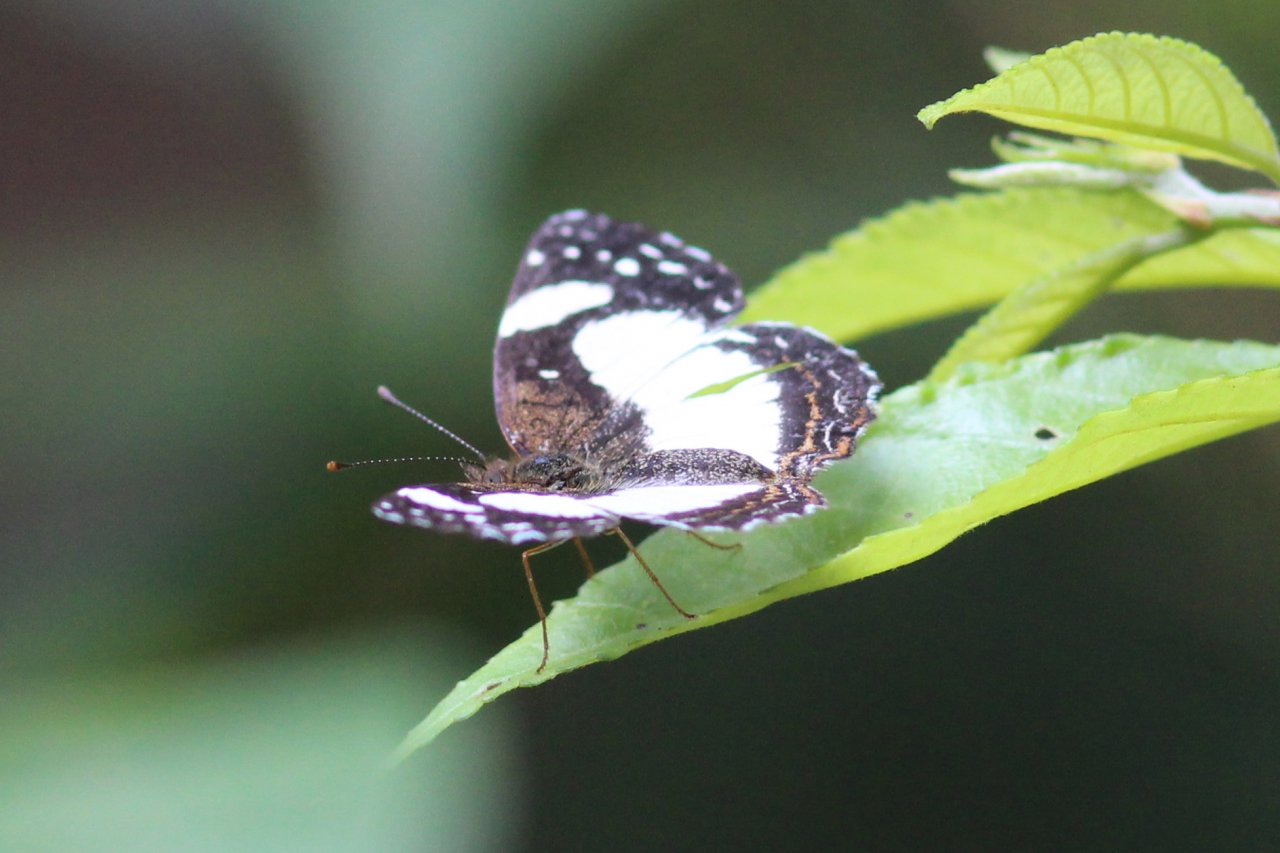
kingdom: Animalia
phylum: Arthropoda
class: Insecta
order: Lepidoptera
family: Nymphalidae
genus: Janatella
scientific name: Janatella leucodesma
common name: Whitened Crescent
